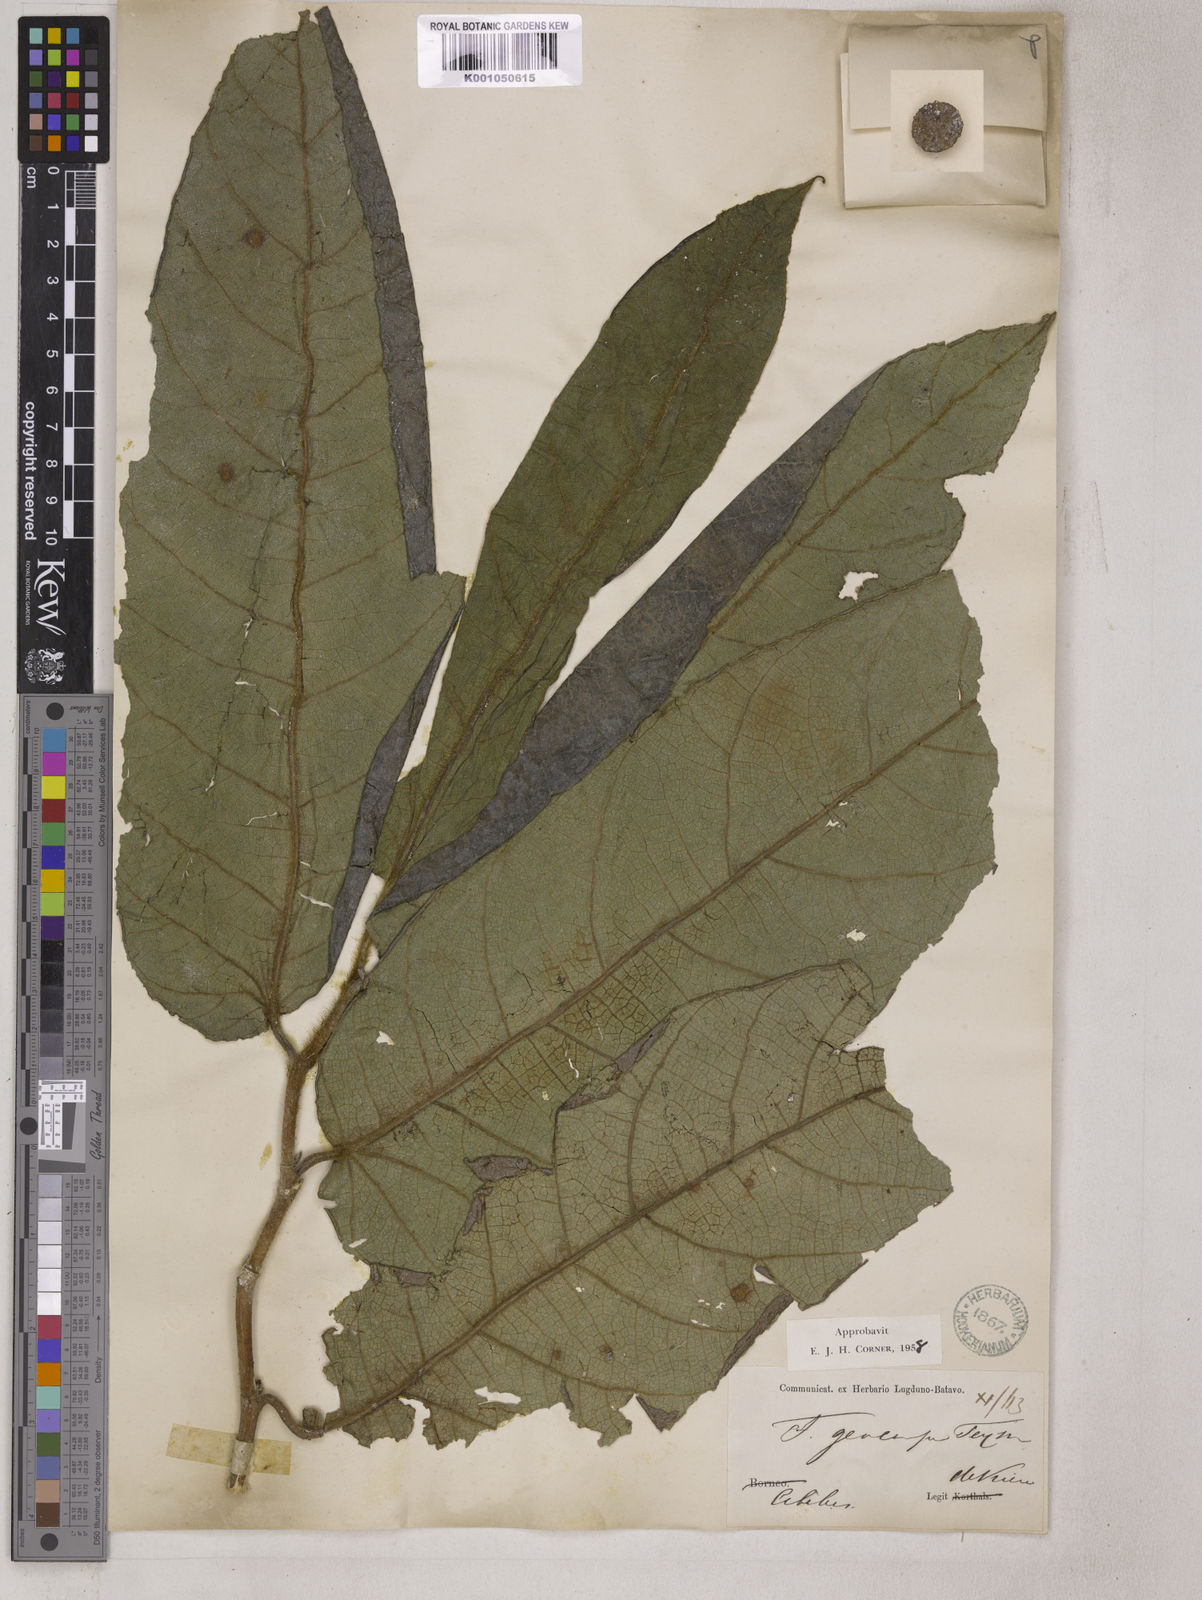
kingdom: Plantae
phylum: Tracheophyta
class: Magnoliopsida
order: Rosales
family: Moraceae
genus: Ficus
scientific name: Ficus
